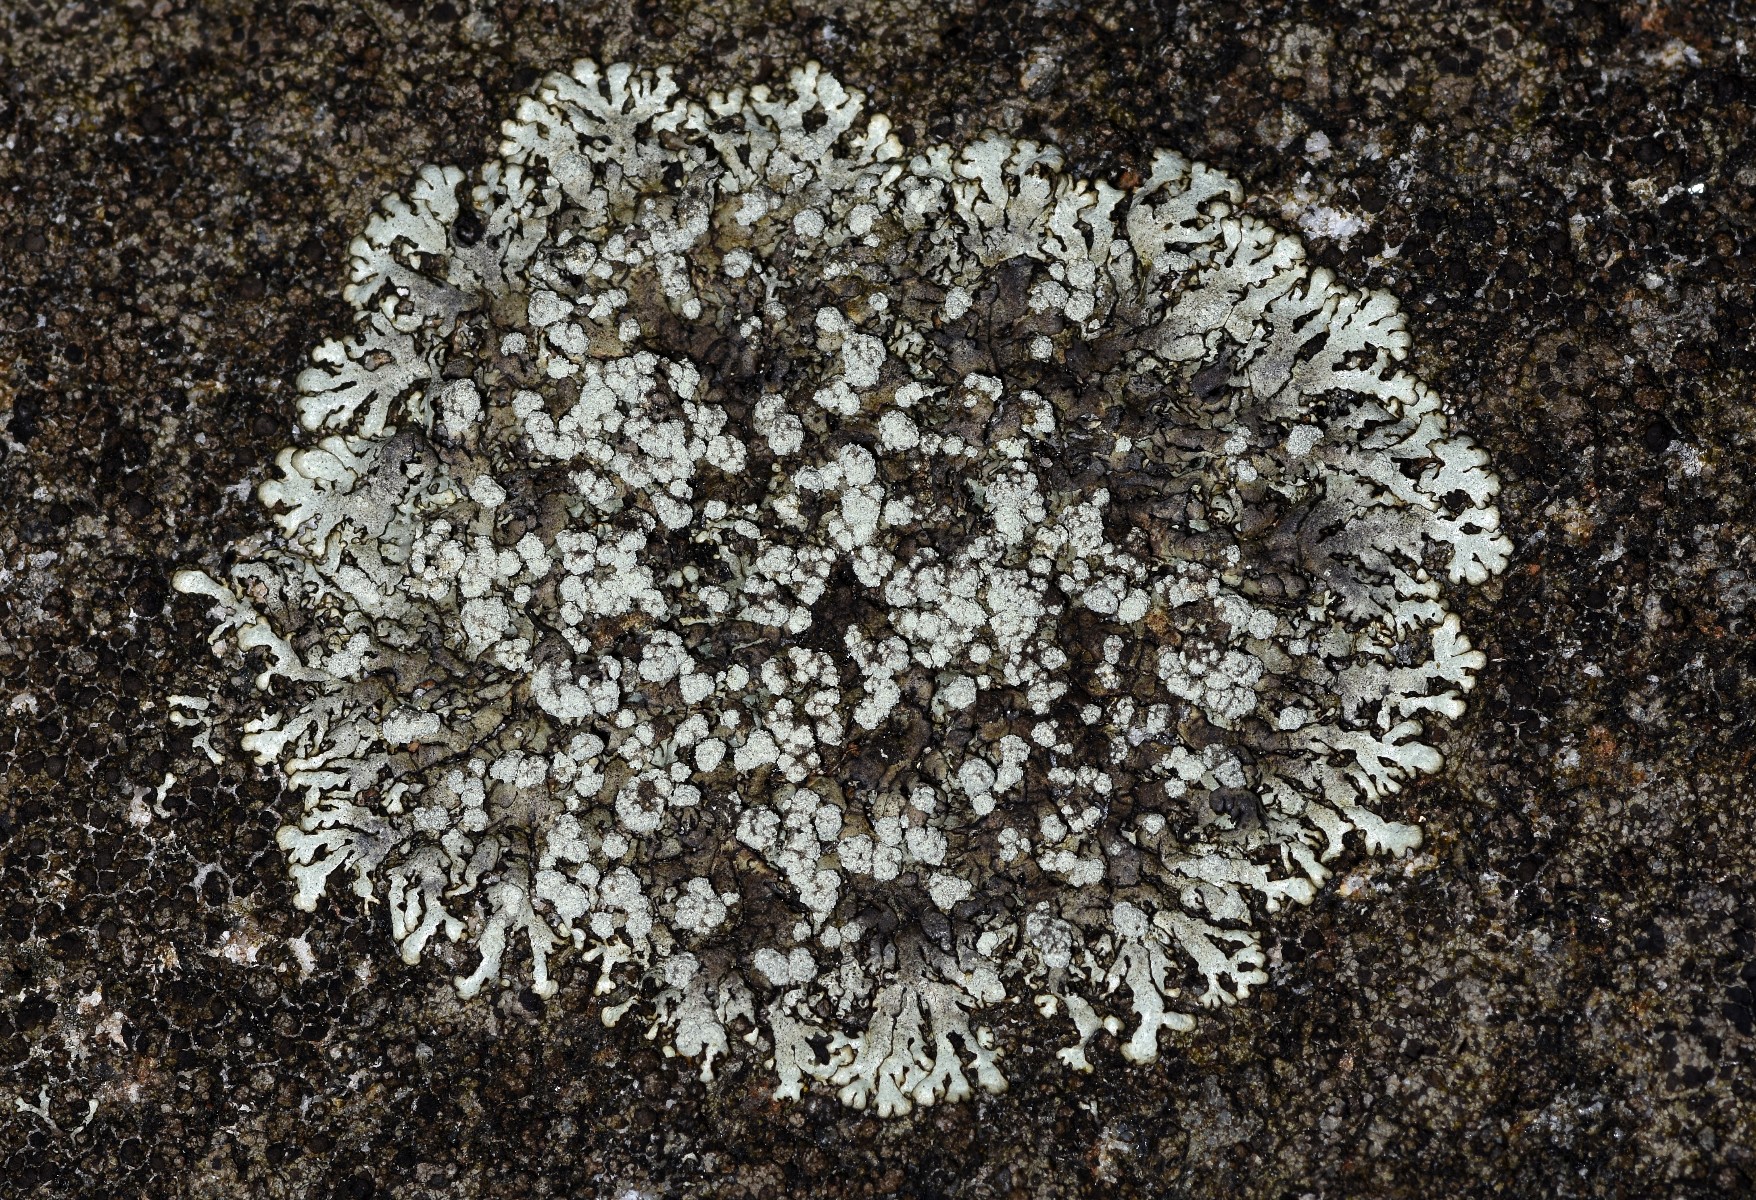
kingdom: Fungi
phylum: Ascomycota
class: Lecanoromycetes
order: Lecanorales
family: Parmeliaceae
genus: Xanthoparmelia
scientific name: Xanthoparmelia mougeotii
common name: liden skållav
